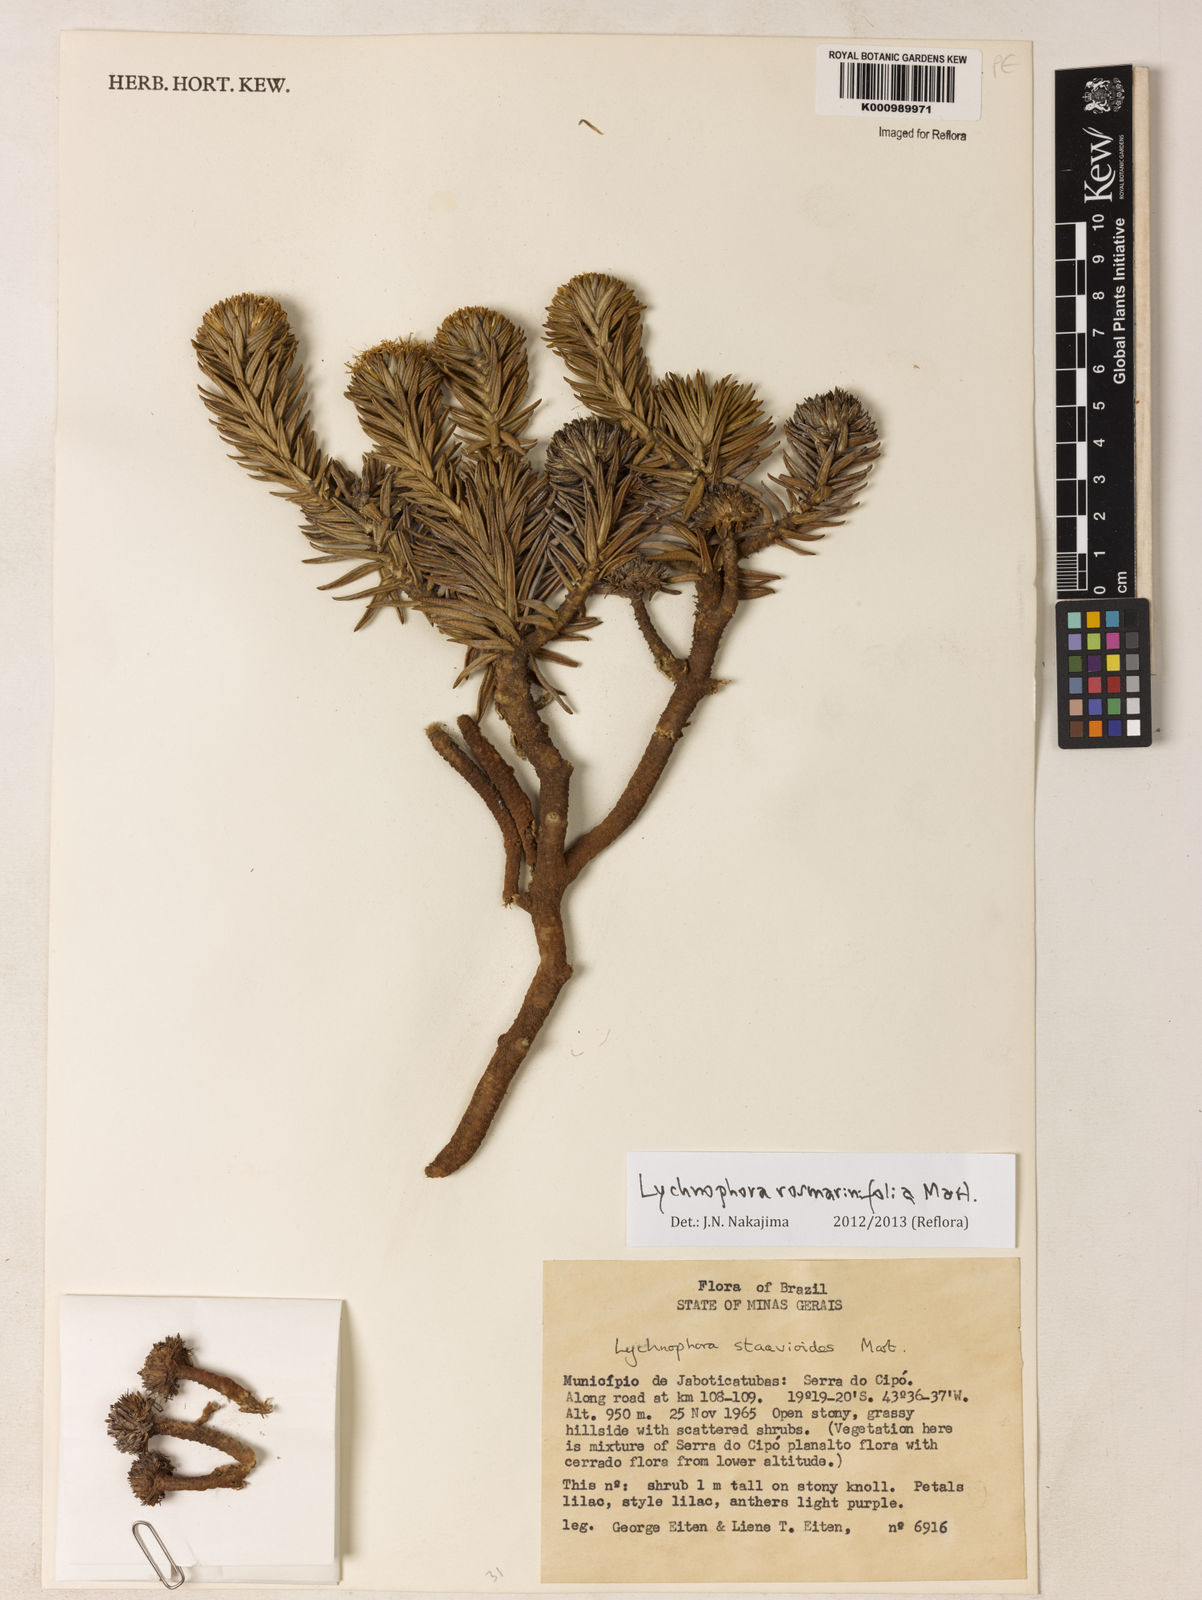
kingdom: Plantae
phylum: Tracheophyta
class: Magnoliopsida
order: Asterales
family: Asteraceae
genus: Lychnophora
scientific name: Lychnophora rosmarinifolia
